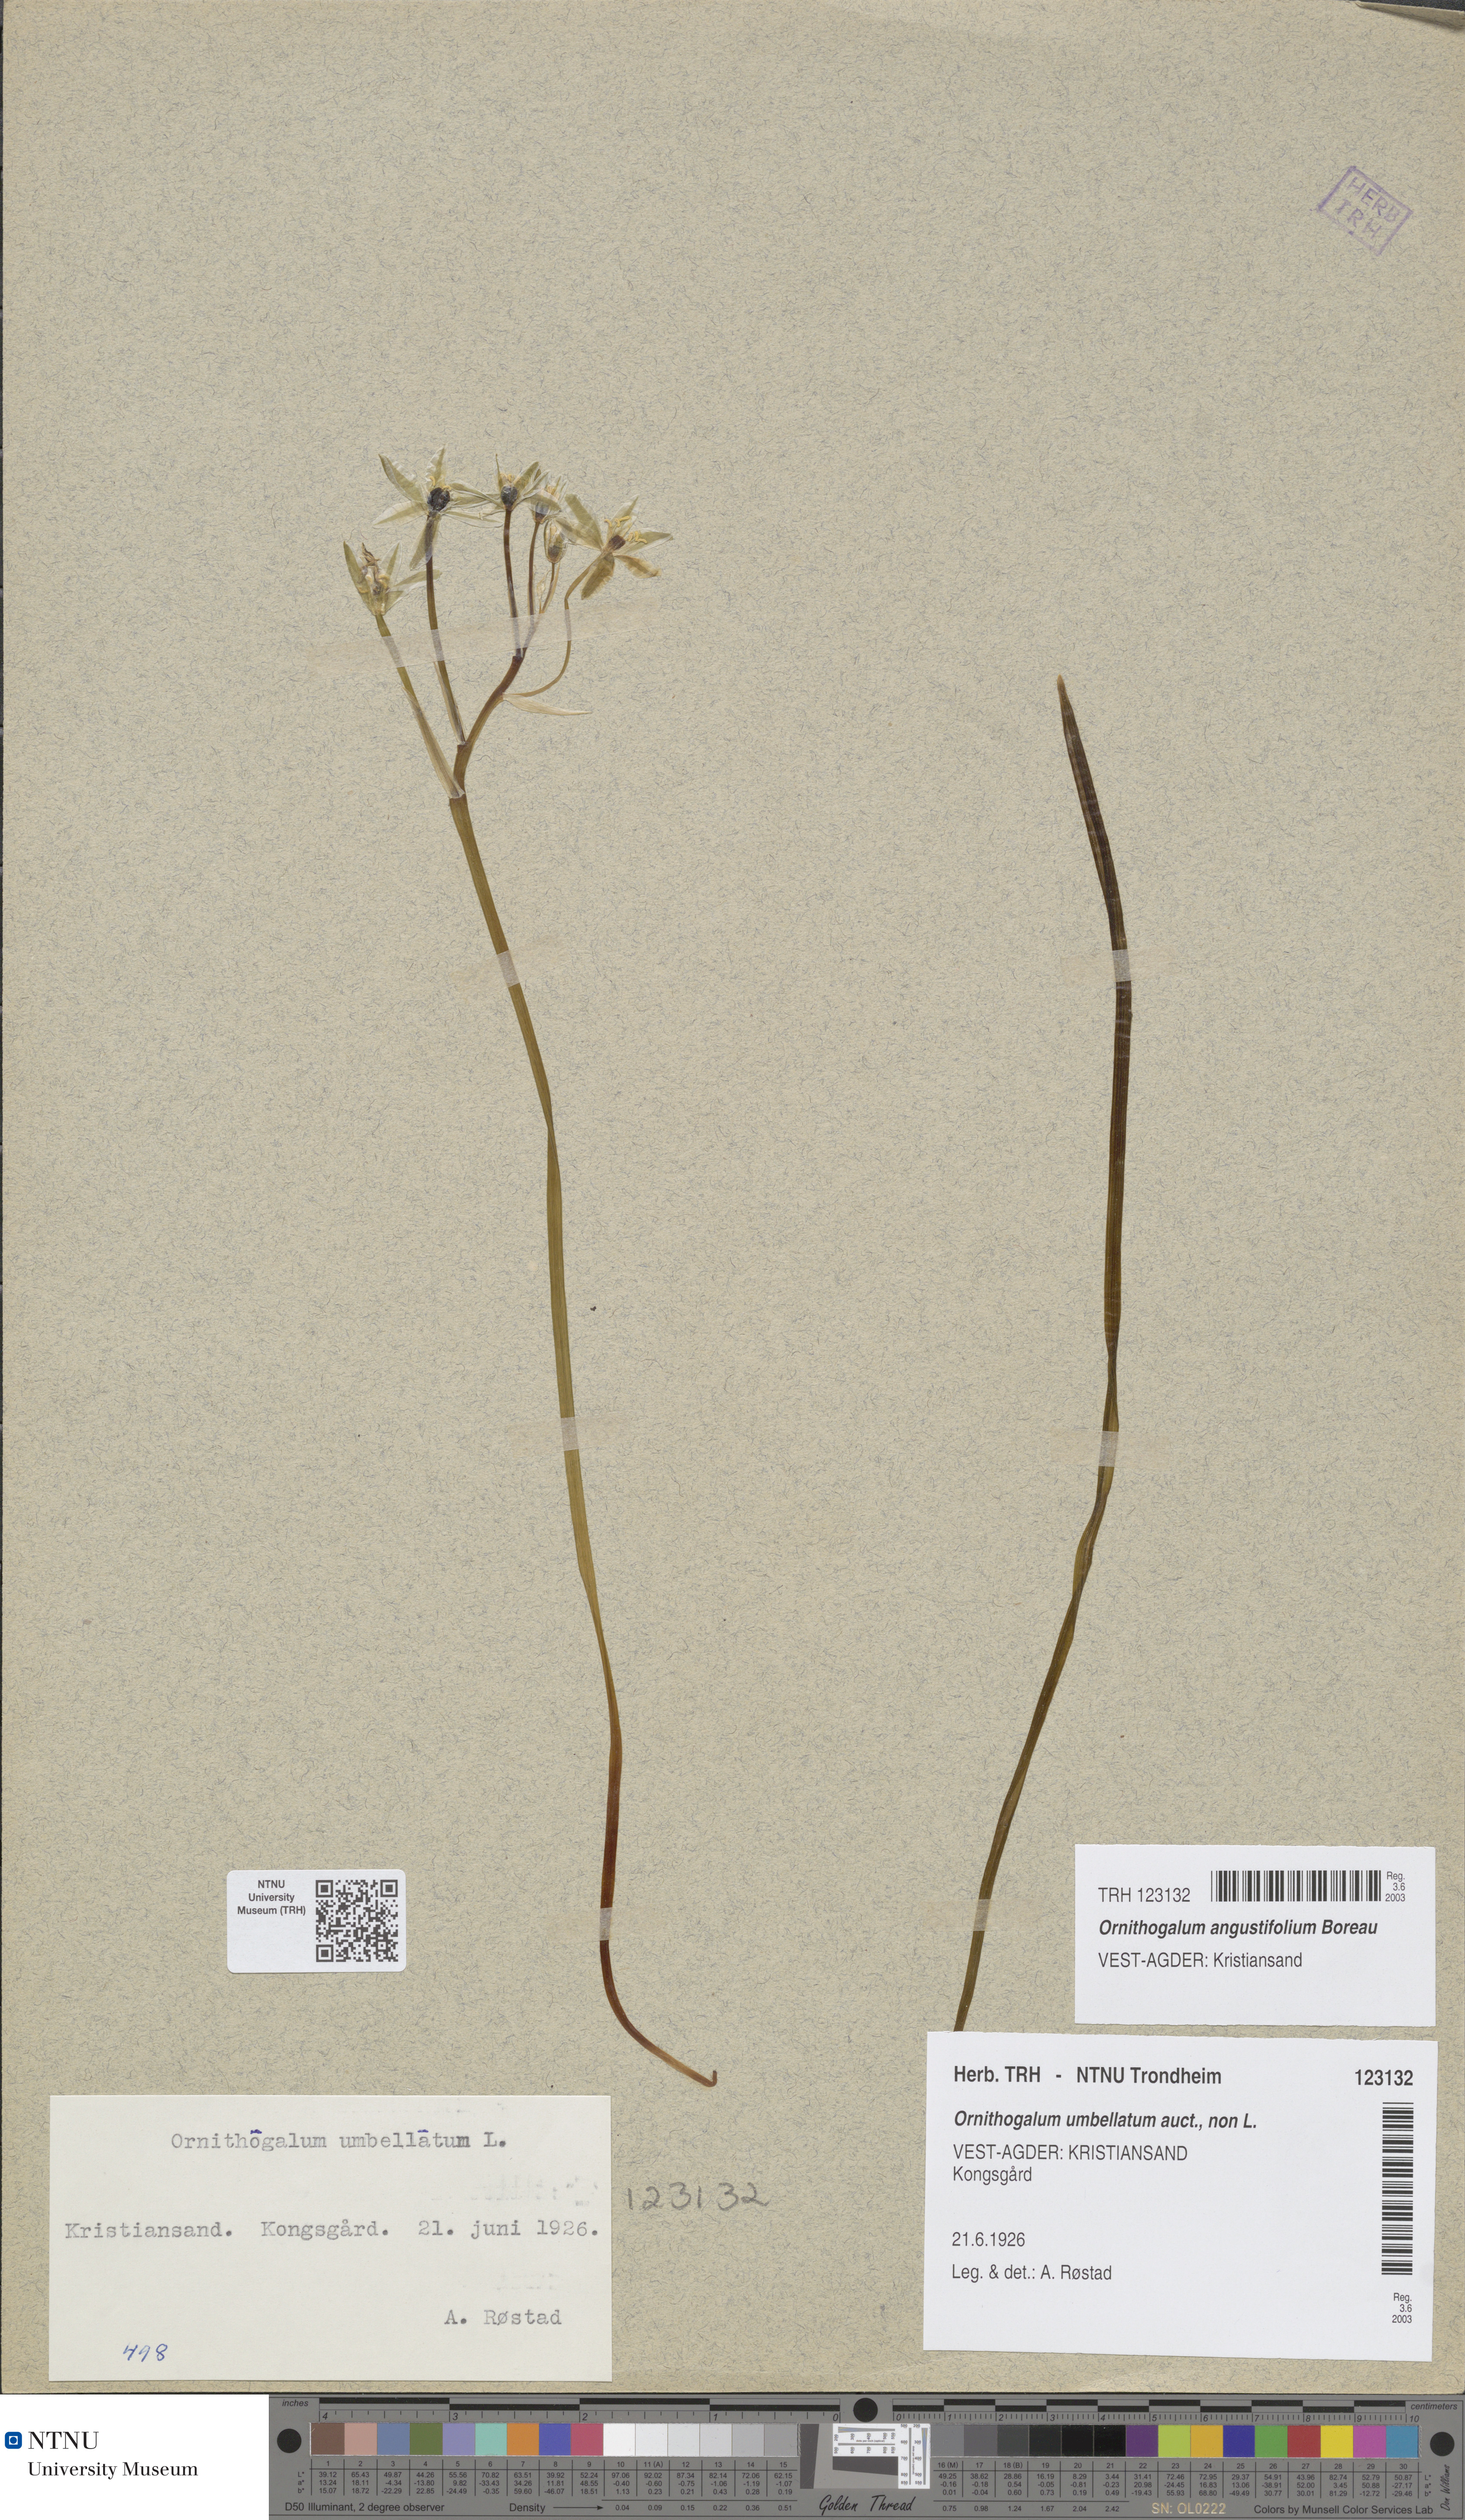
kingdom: Plantae
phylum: Tracheophyta
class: Liliopsida
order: Asparagales
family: Asparagaceae
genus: Ornithogalum
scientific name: Ornithogalum umbellatum
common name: Garden star-of-bethlehem
